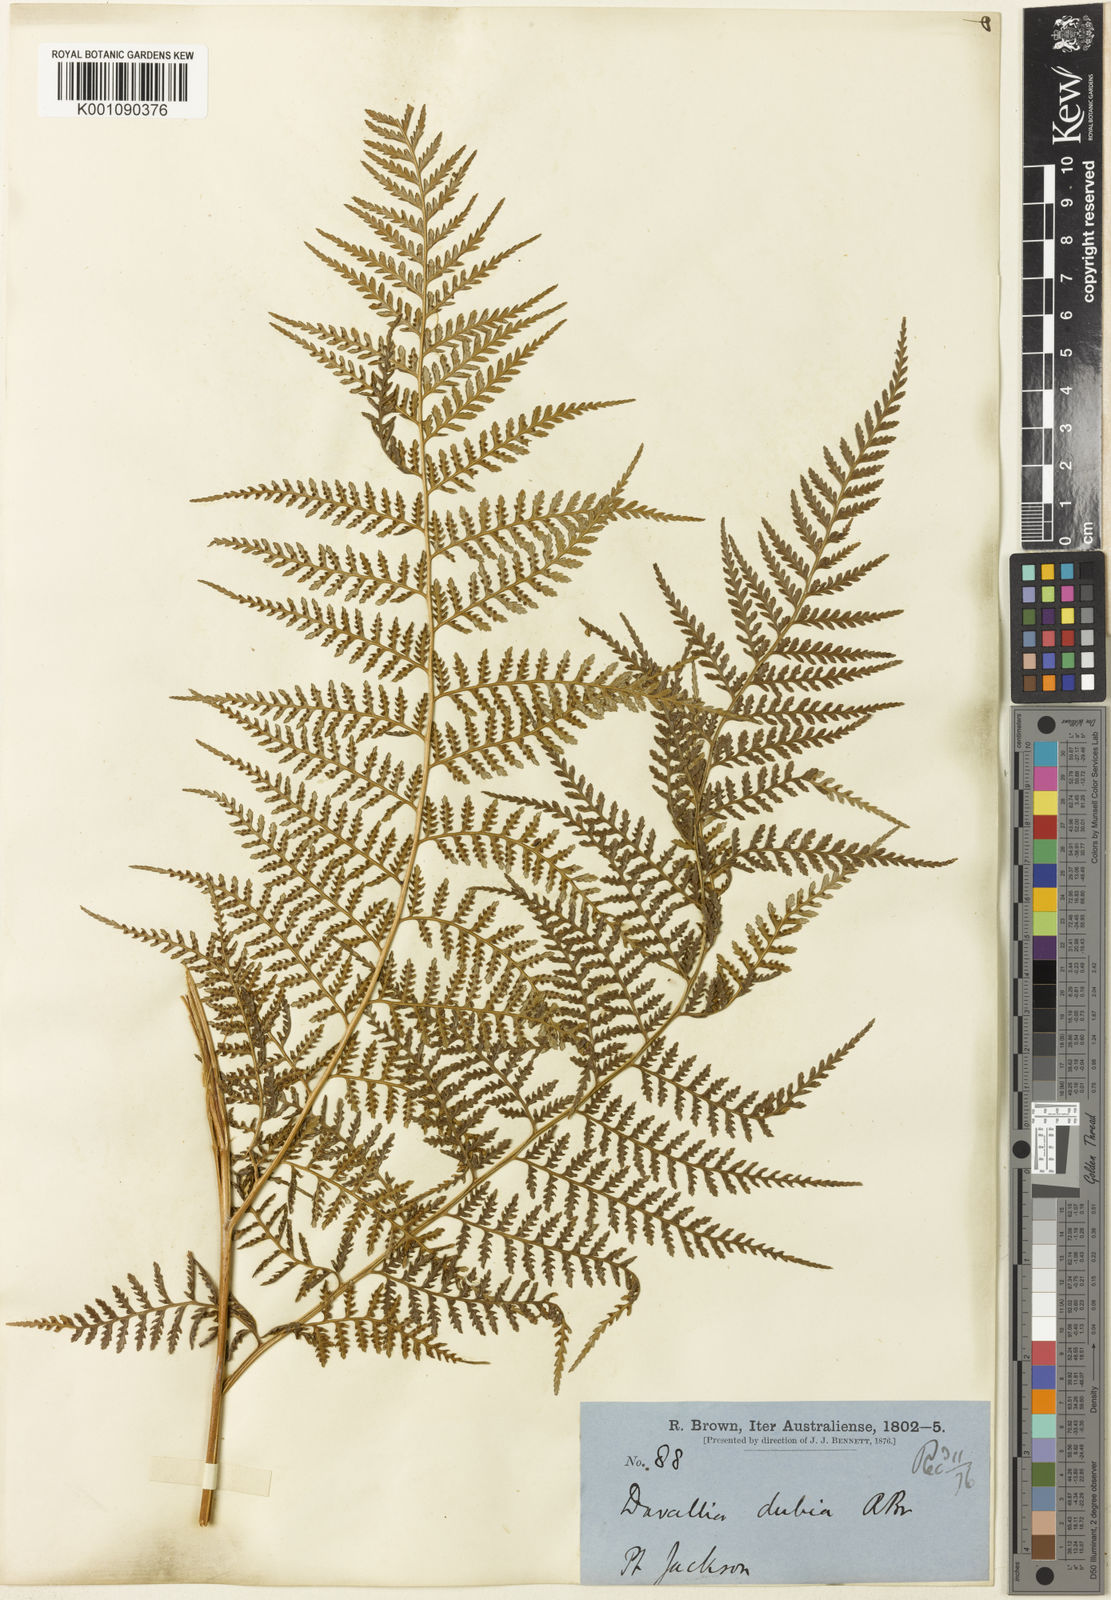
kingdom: Plantae
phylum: Tracheophyta
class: Polypodiopsida
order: Cyatheales
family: Dicksoniaceae
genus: Calochlaena
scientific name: Calochlaena dubia
